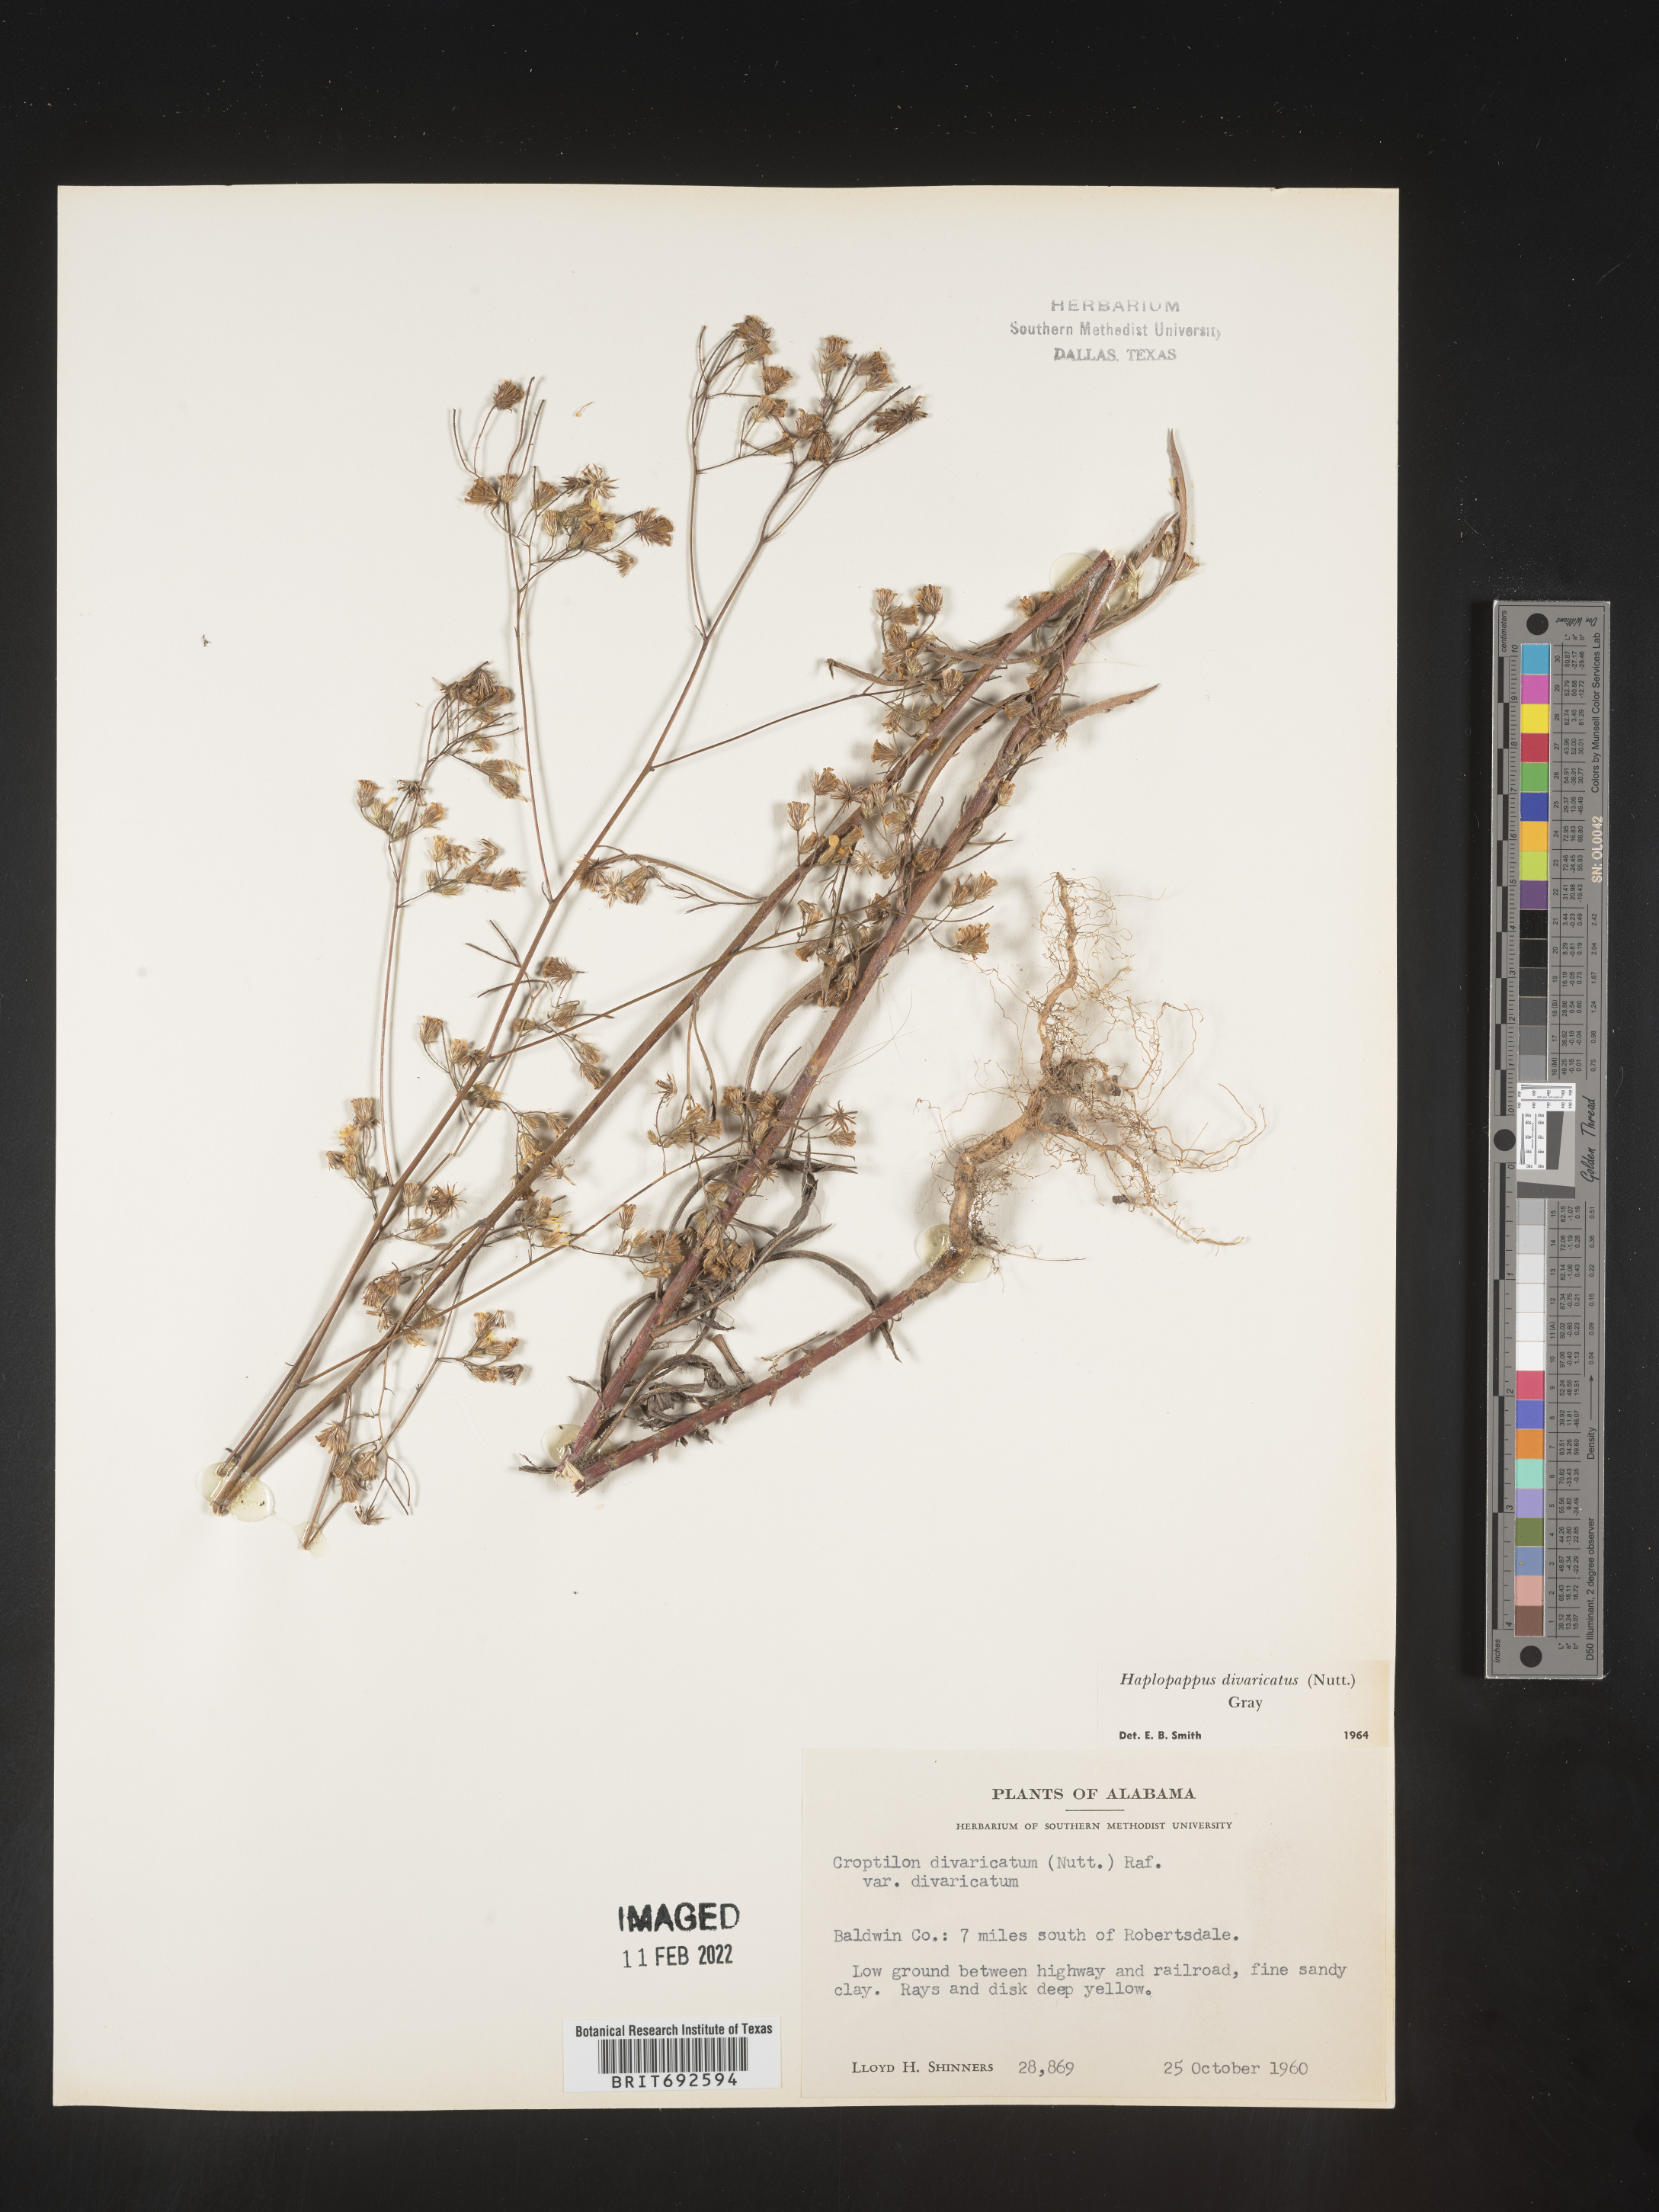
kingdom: Plantae
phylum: Tracheophyta
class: Magnoliopsida
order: Asterales
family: Asteraceae
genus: Croptilon
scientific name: Croptilon divaricatum
